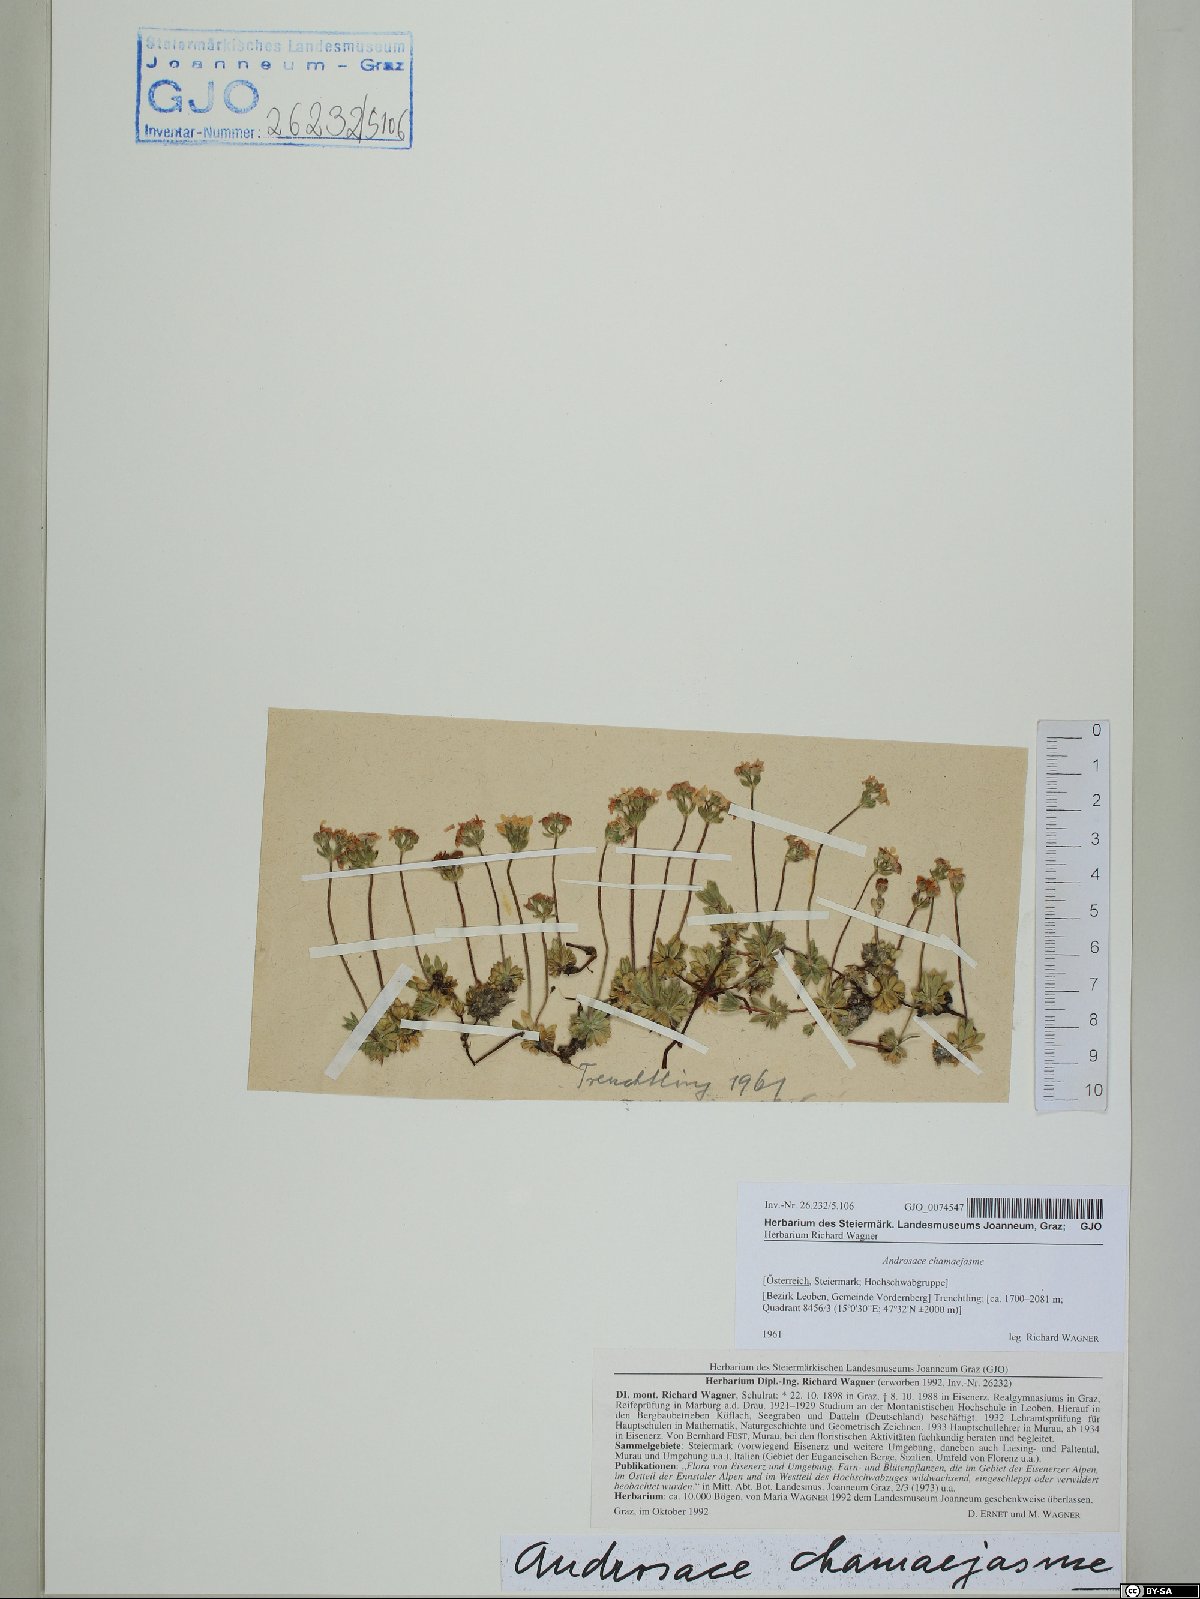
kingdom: Plantae
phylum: Tracheophyta
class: Magnoliopsida
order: Ericales
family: Primulaceae
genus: Androsace
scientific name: Androsace chamaejasme
